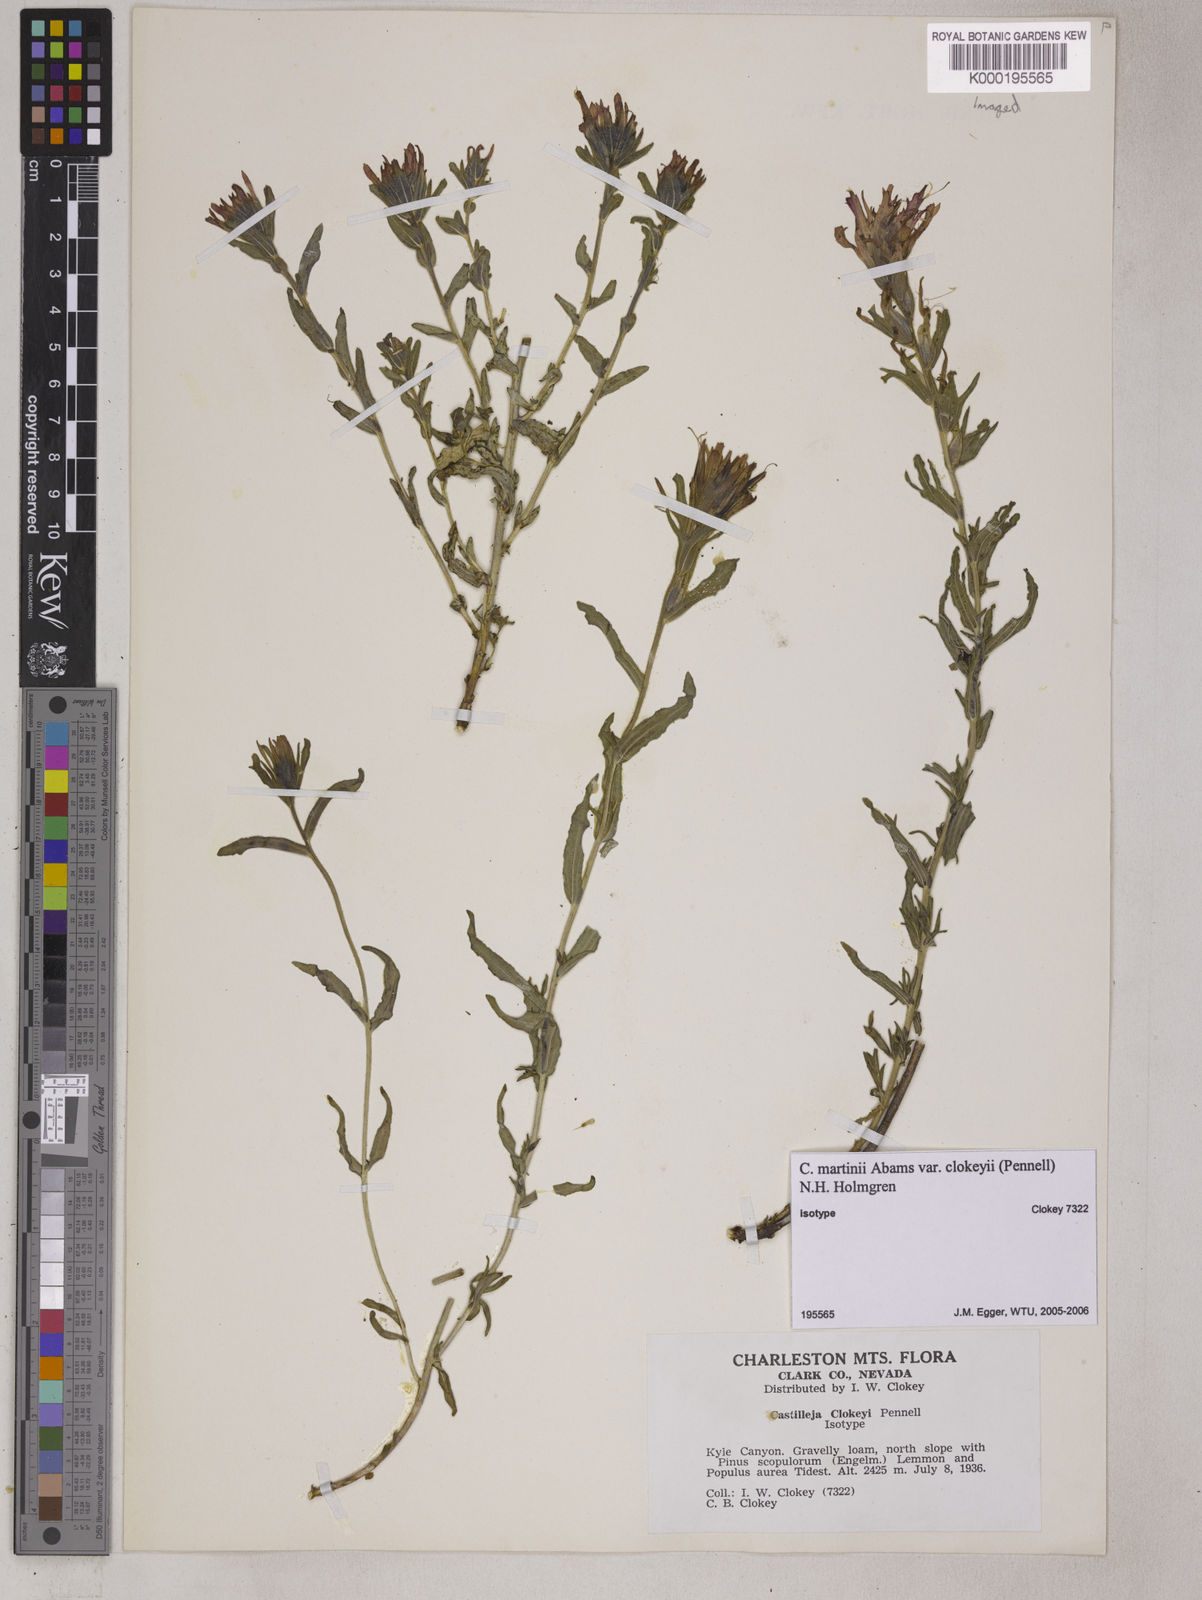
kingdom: Plantae
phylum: Tracheophyta
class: Magnoliopsida
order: Lamiales
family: Orobanchaceae
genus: Castilleja
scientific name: Castilleja martini
